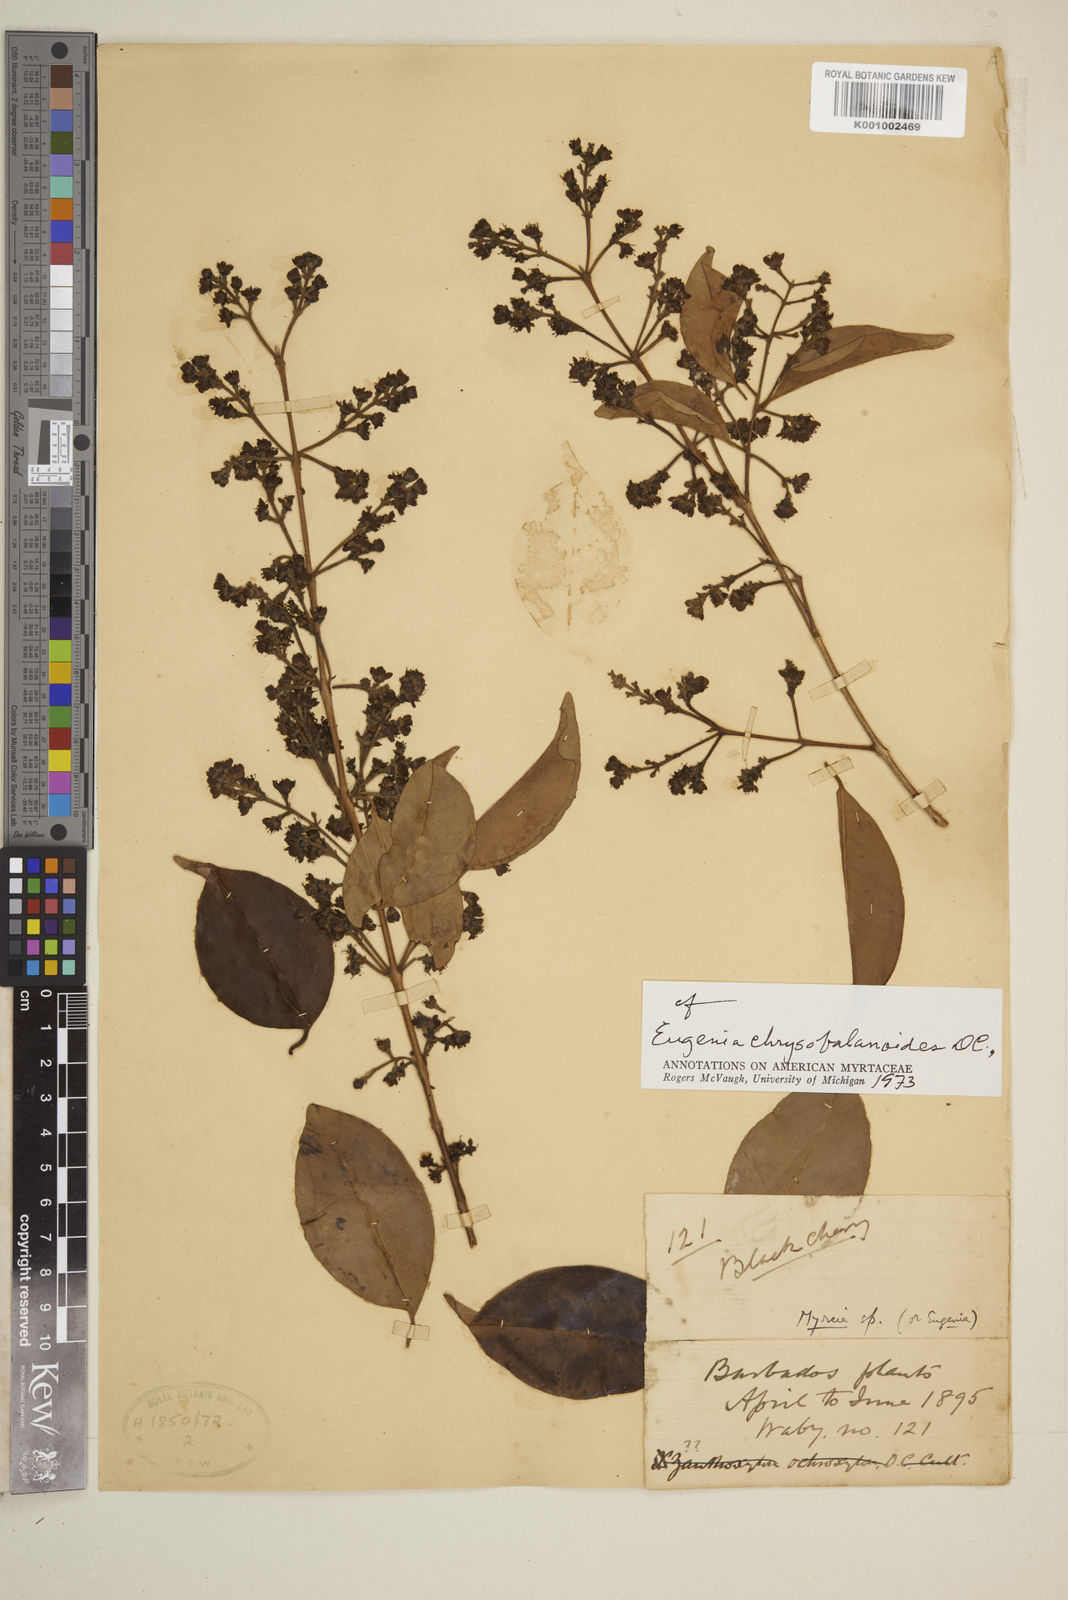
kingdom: Plantae
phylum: Tracheophyta
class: Magnoliopsida
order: Myrtales
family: Myrtaceae
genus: Eugenia
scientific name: Eugenia chrysobalanoides
